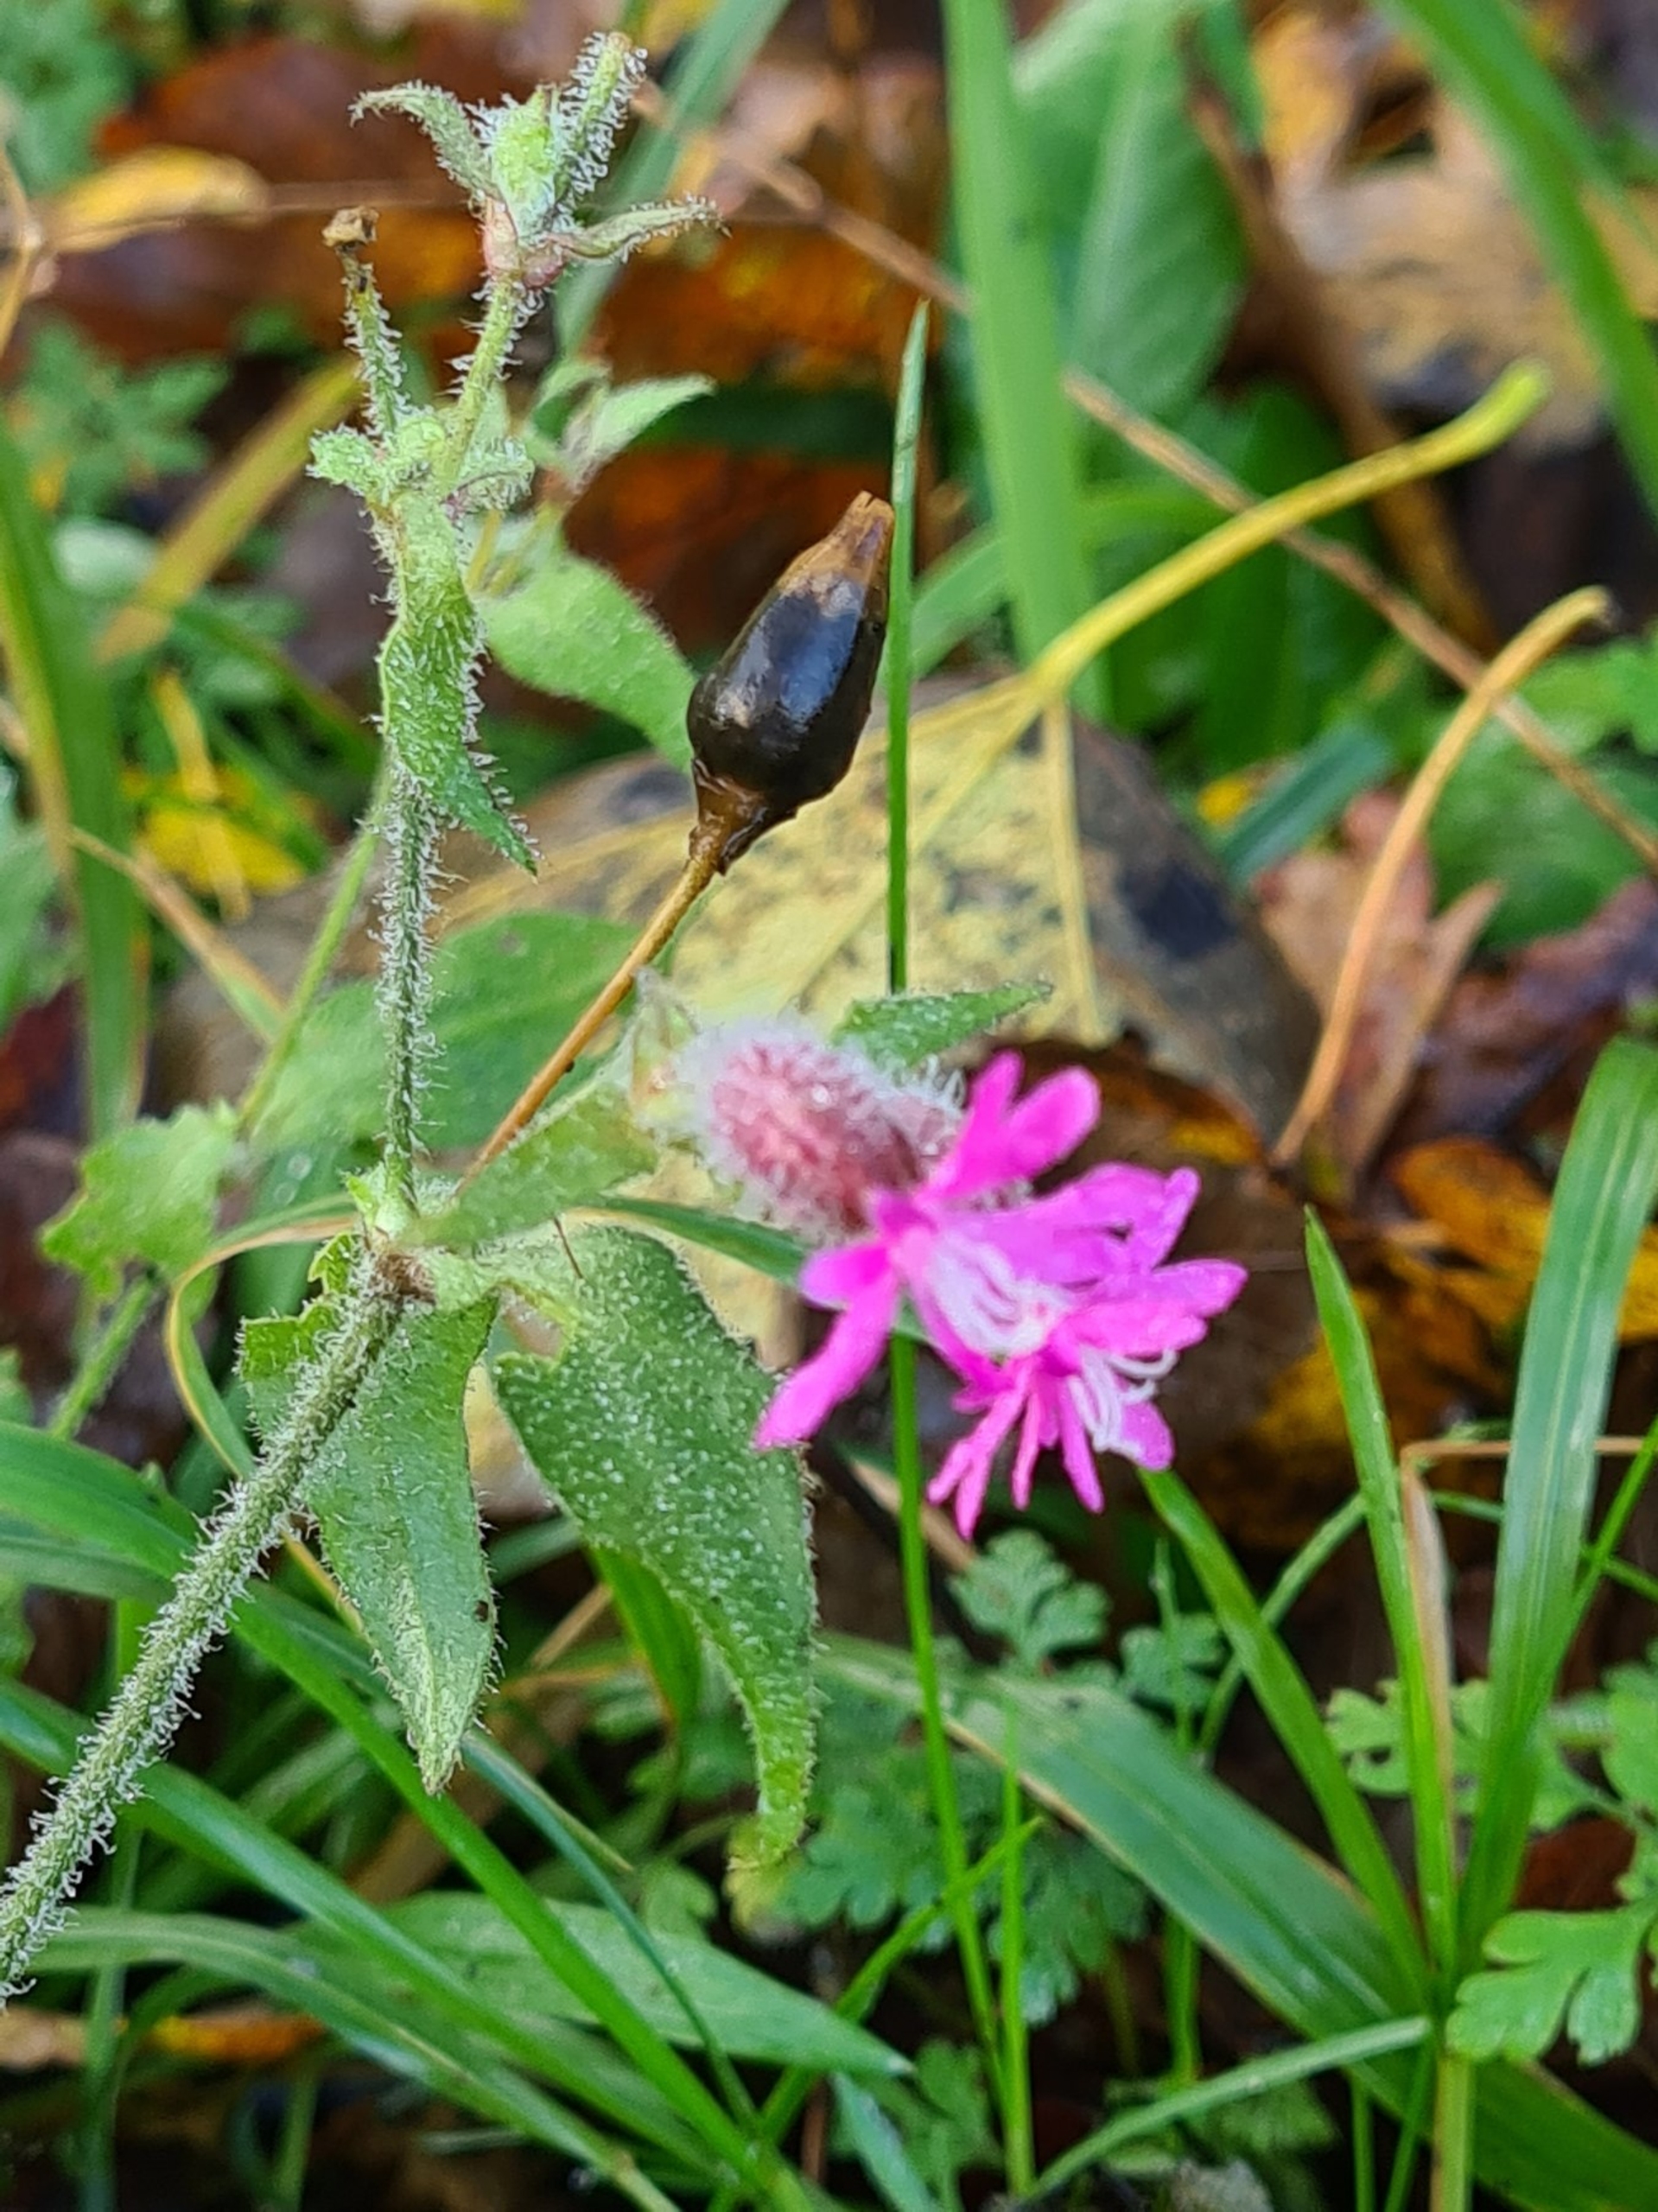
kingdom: Plantae
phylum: Tracheophyta
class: Magnoliopsida
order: Caryophyllales
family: Caryophyllaceae
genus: Silene
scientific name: Silene dioica
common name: Dagpragtstjerne
